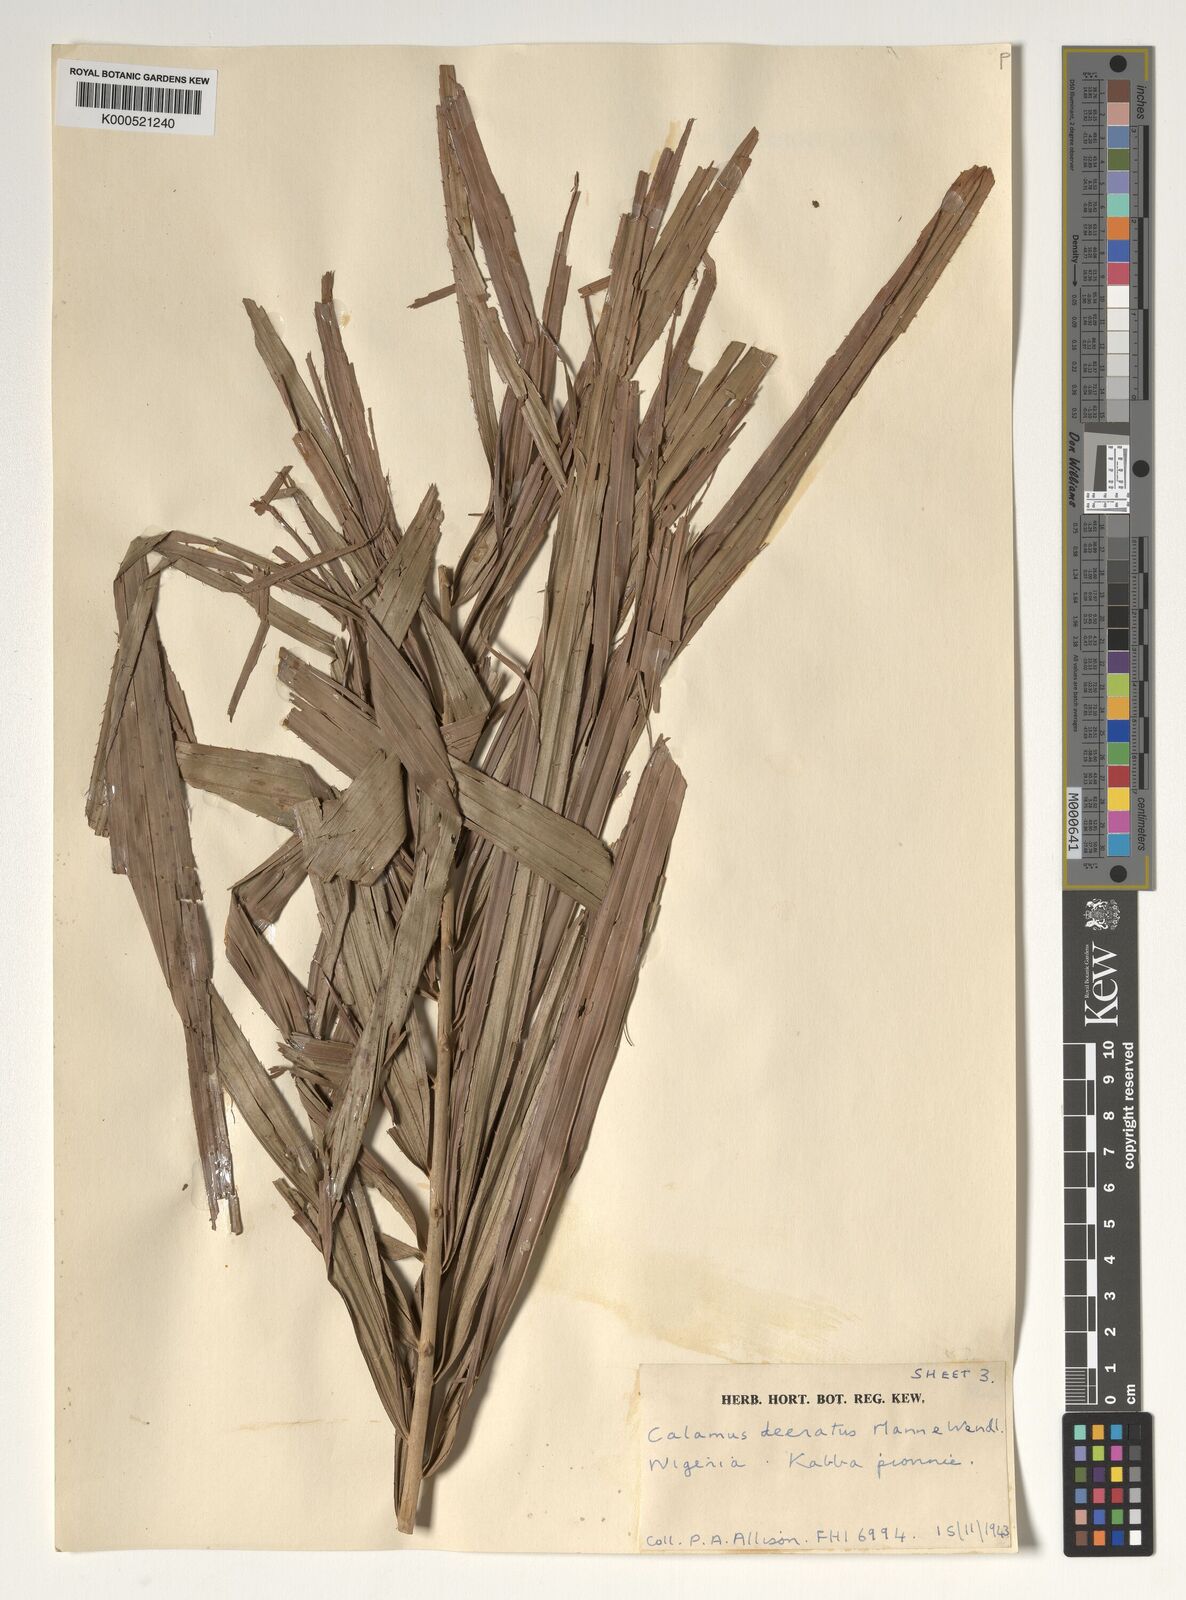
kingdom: Plantae
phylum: Tracheophyta
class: Liliopsida
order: Arecales
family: Arecaceae
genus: Calamus
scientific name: Calamus deerratus
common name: Rattan
